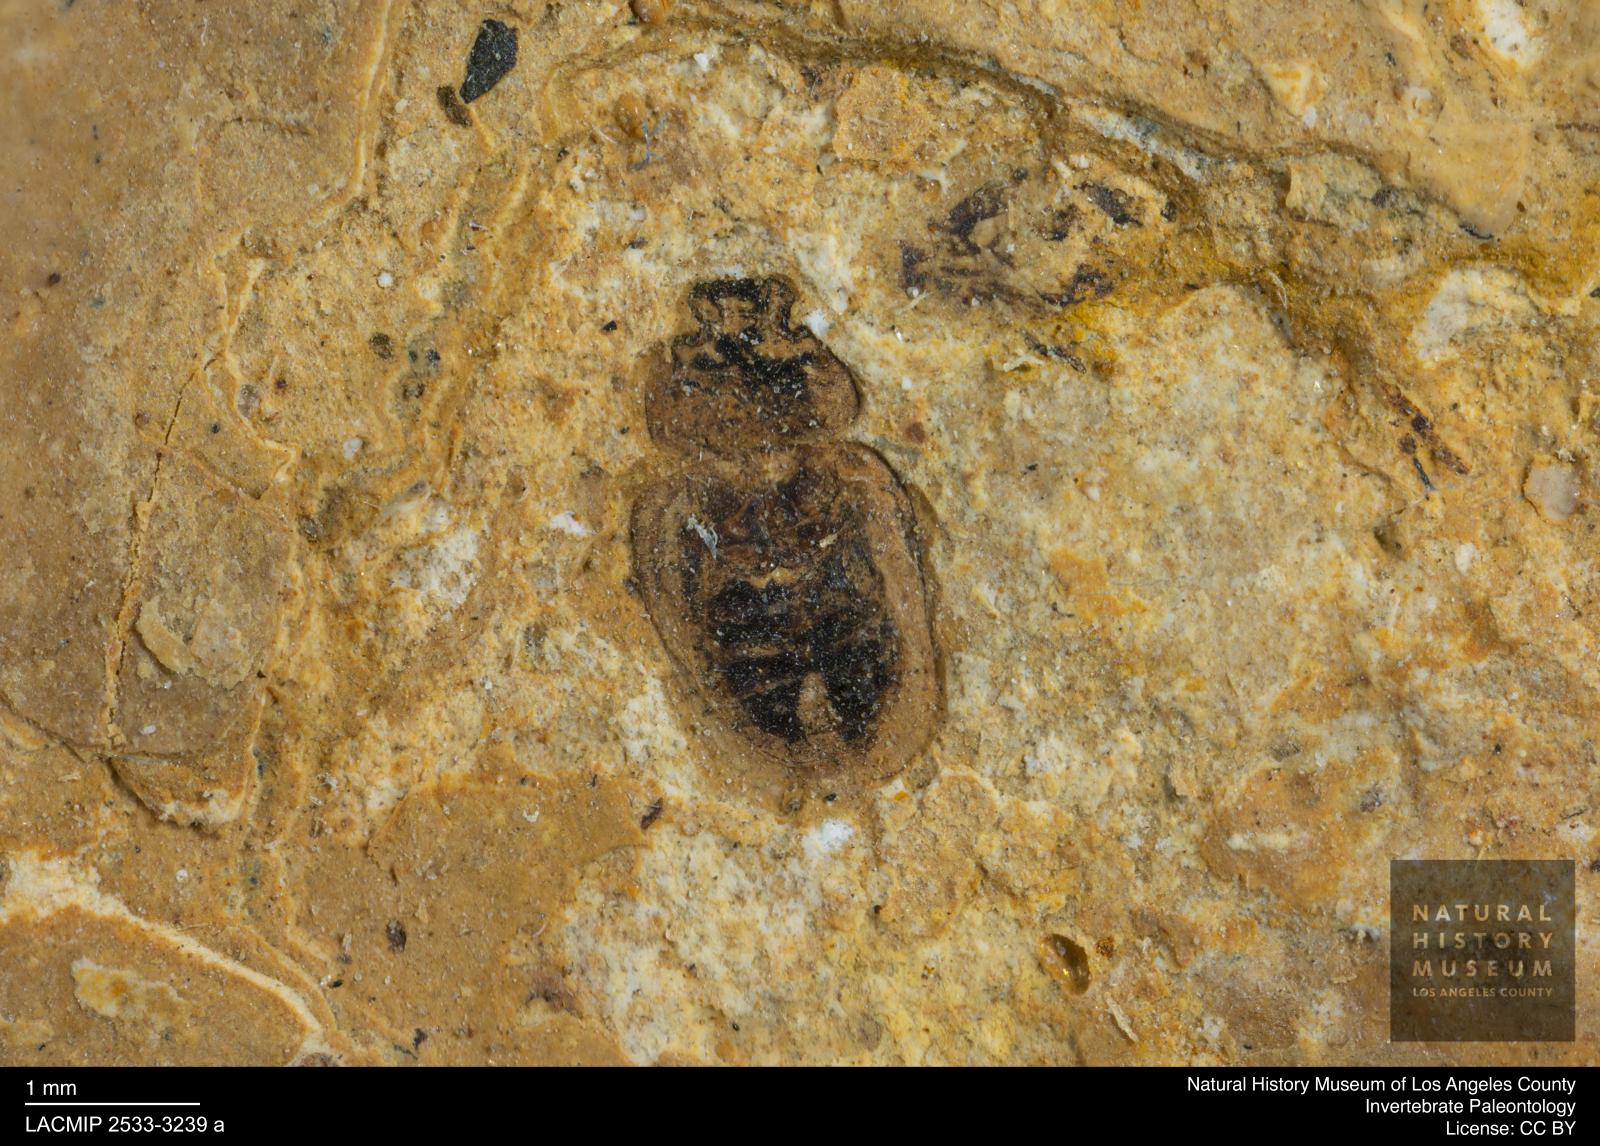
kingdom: Animalia
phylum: Arthropoda
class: Insecta
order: Coleoptera
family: Hydrophilidae
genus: Paracymus
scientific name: Paracymus excitatus
